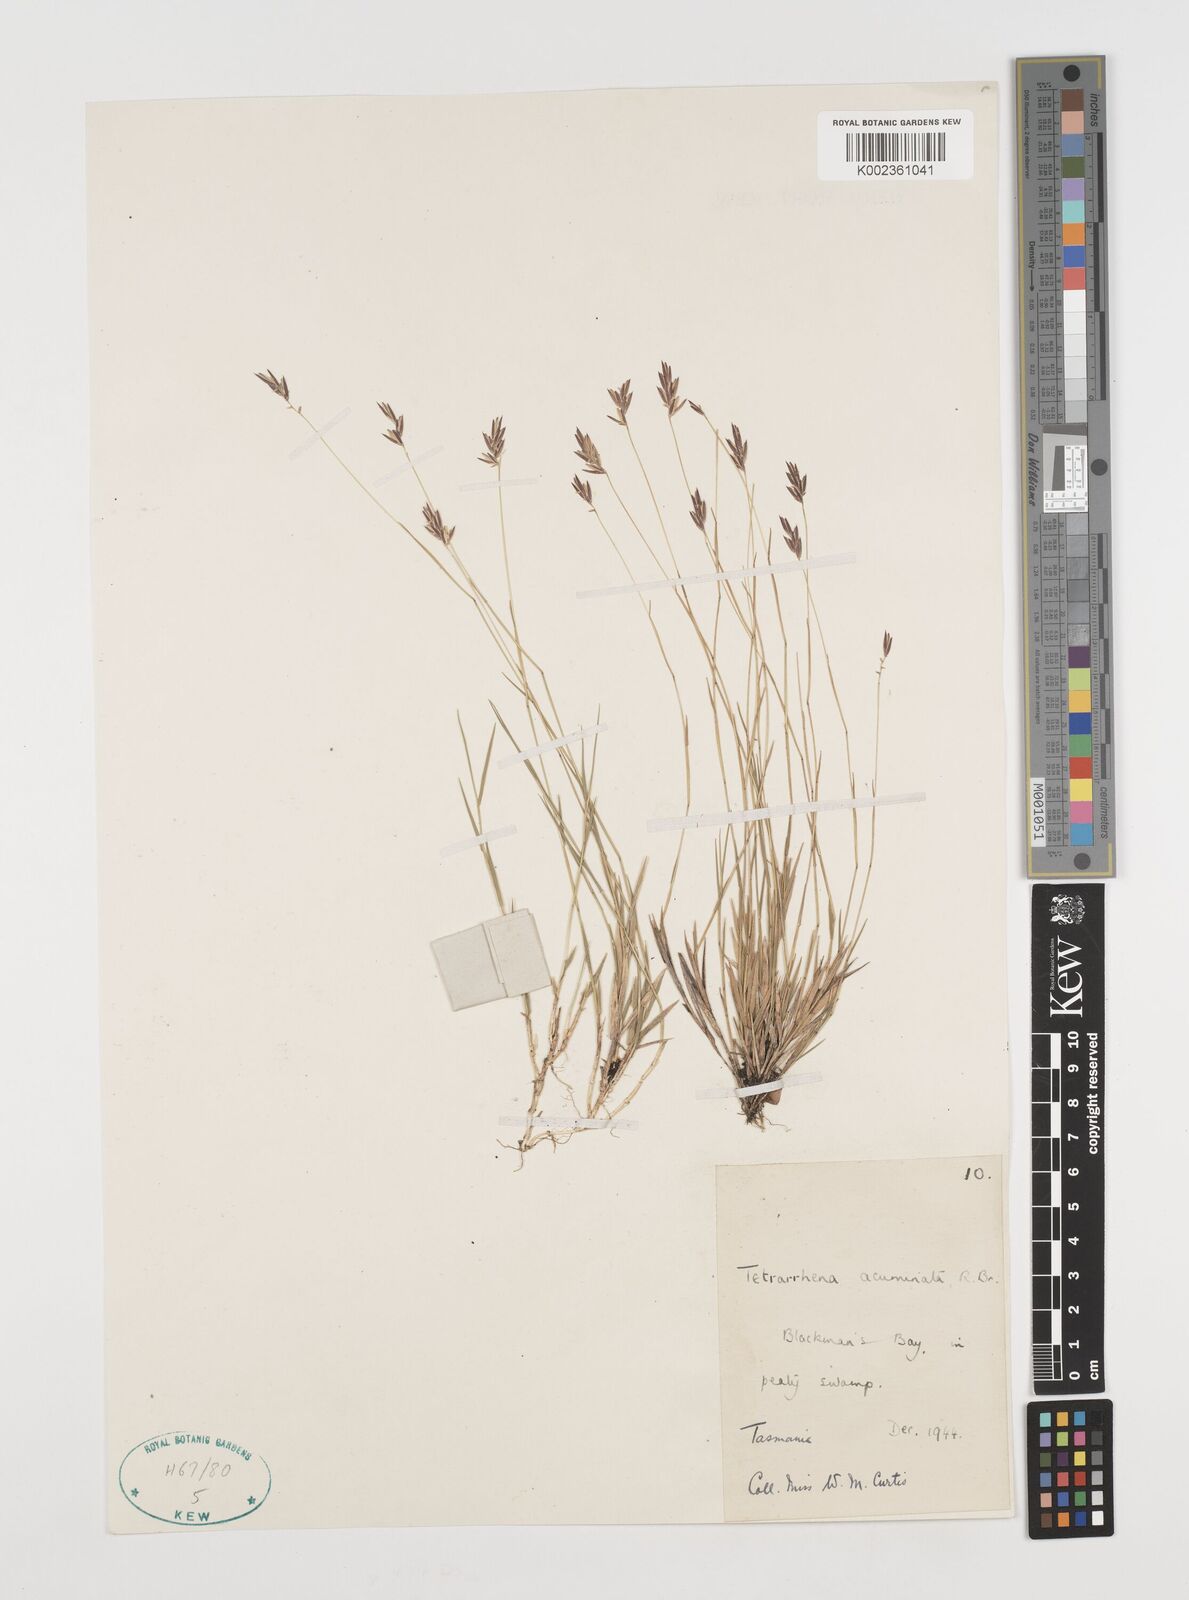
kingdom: Plantae
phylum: Tracheophyta
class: Liliopsida
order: Poales
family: Poaceae
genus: Tetrarrhena
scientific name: Tetrarrhena acuminata
